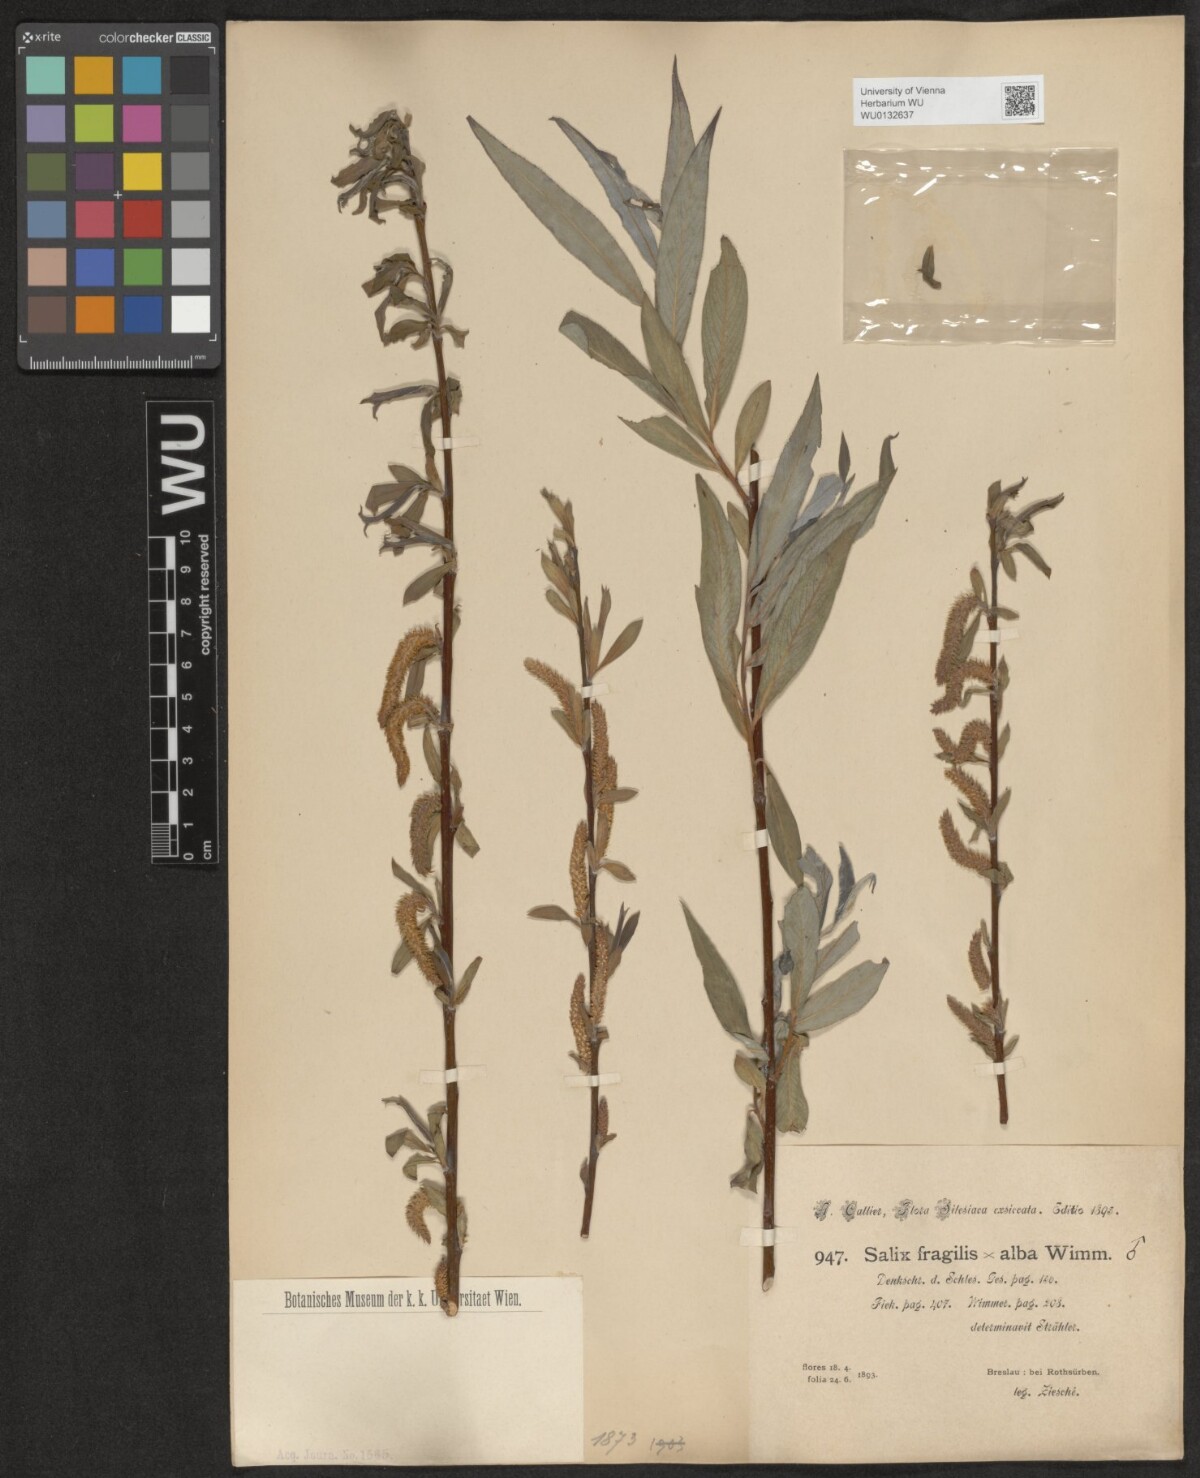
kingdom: Plantae
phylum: Tracheophyta
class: Magnoliopsida
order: Malpighiales
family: Salicaceae
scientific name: Salicaceae
